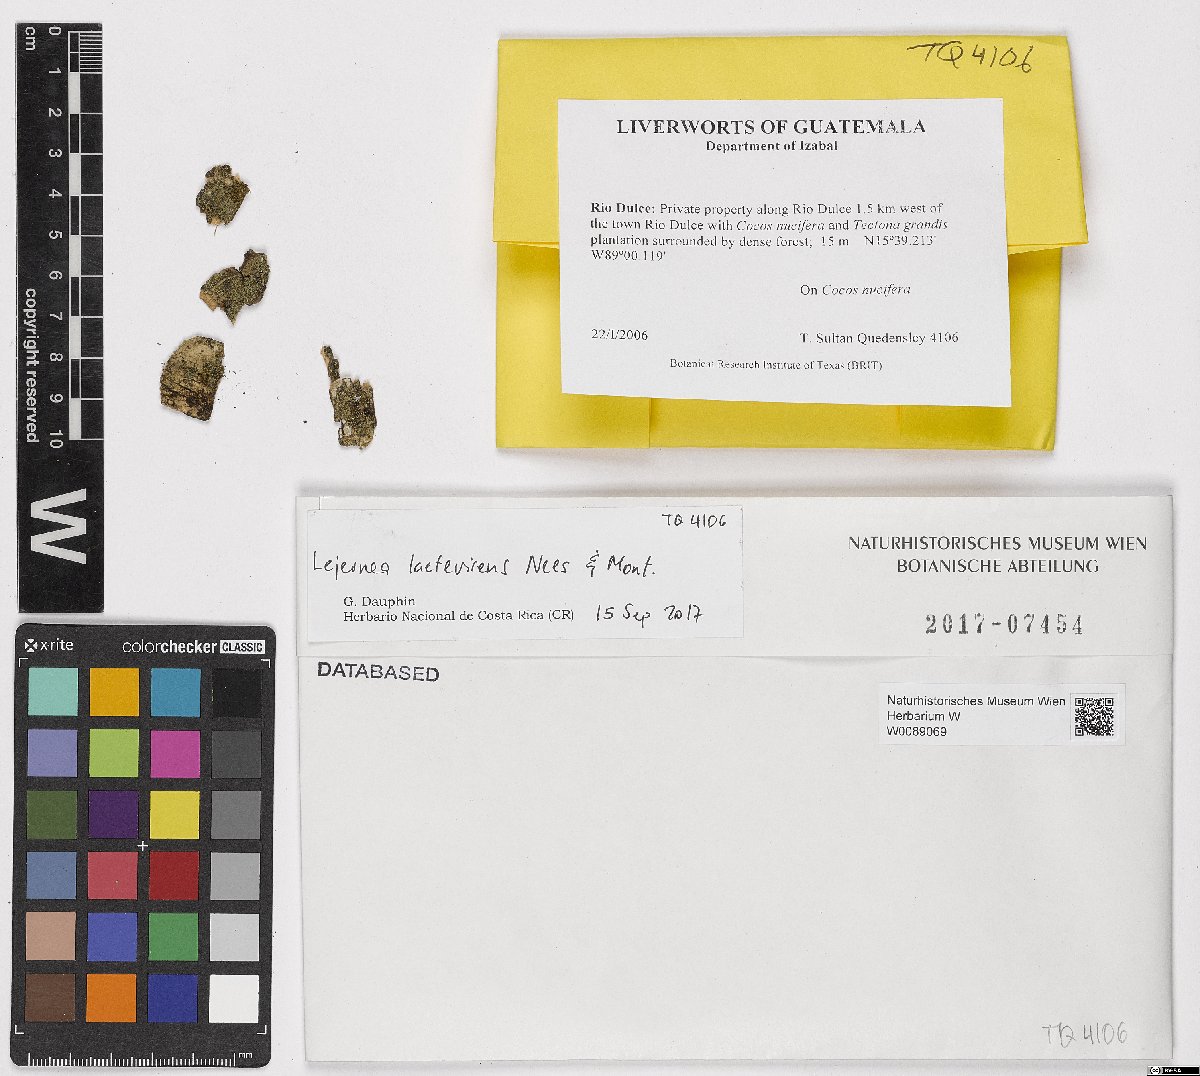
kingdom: Plantae
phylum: Marchantiophyta
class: Jungermanniopsida
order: Porellales
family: Lejeuneaceae
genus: Lejeunea
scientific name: Lejeunea laetevirens
